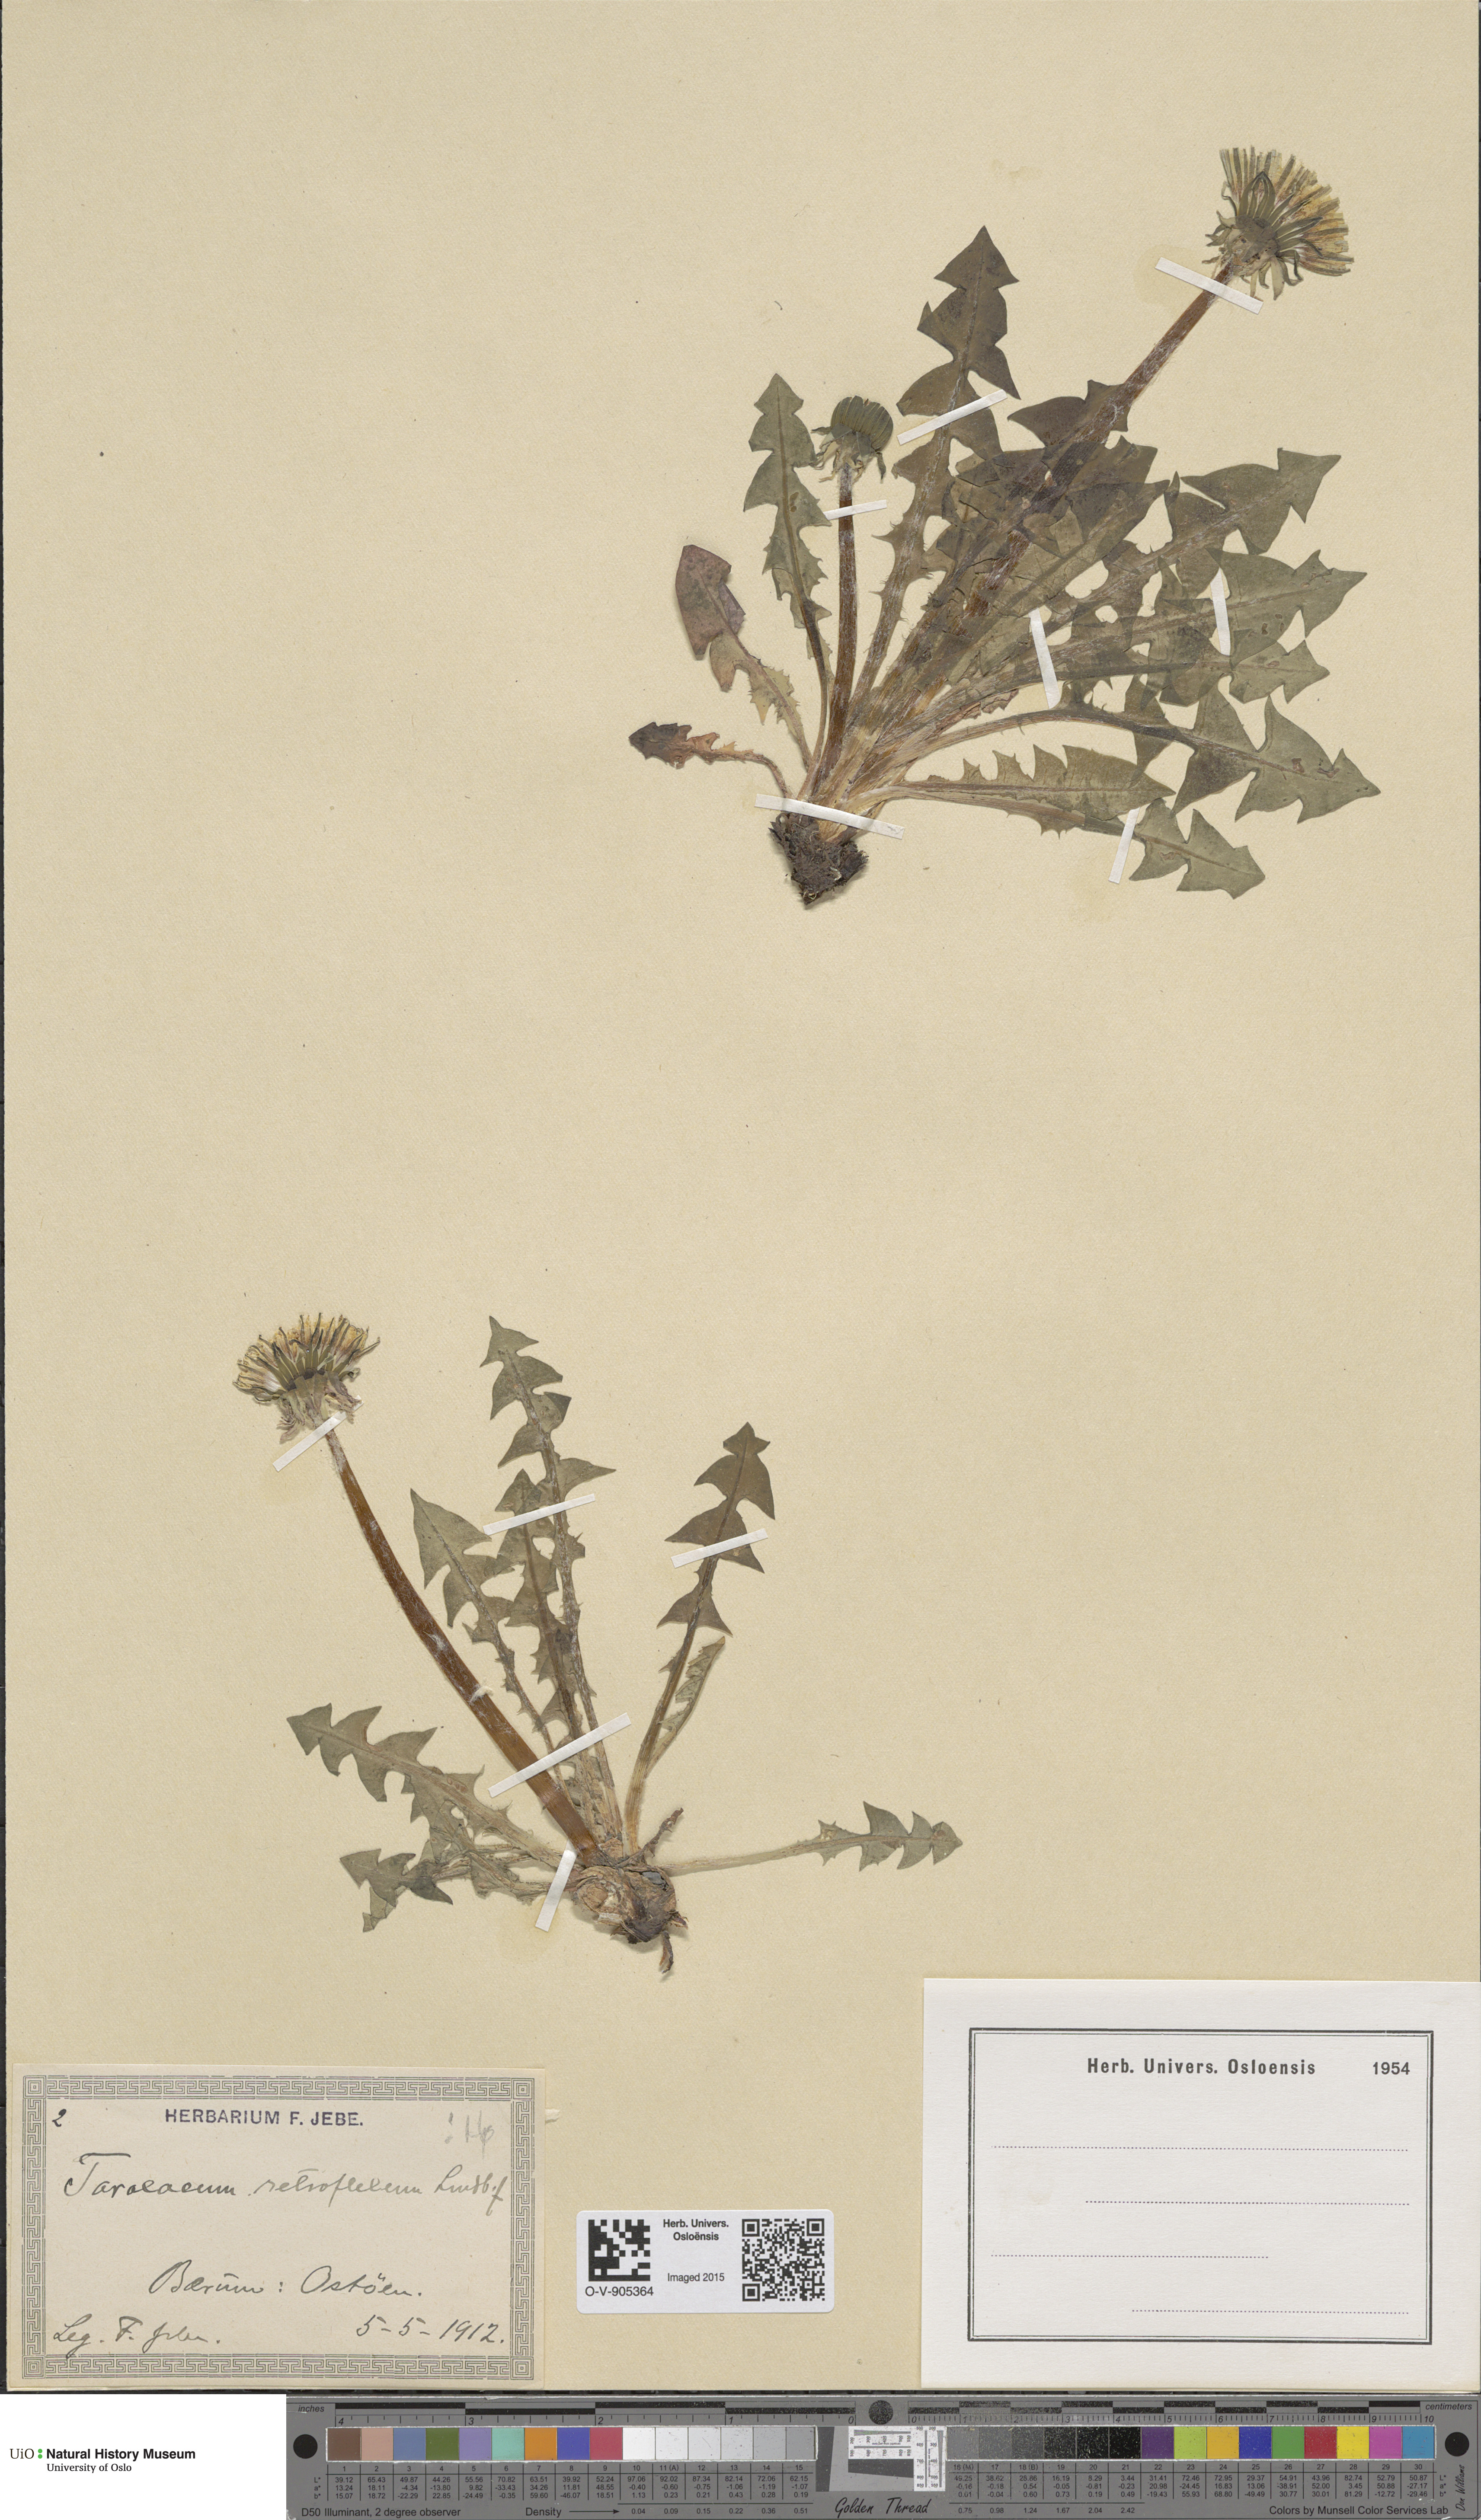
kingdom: Plantae
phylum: Tracheophyta
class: Magnoliopsida
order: Asterales
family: Asteraceae
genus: Taraxacum
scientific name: Taraxacum retroflexum
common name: Reflexed-lobed dandelion
